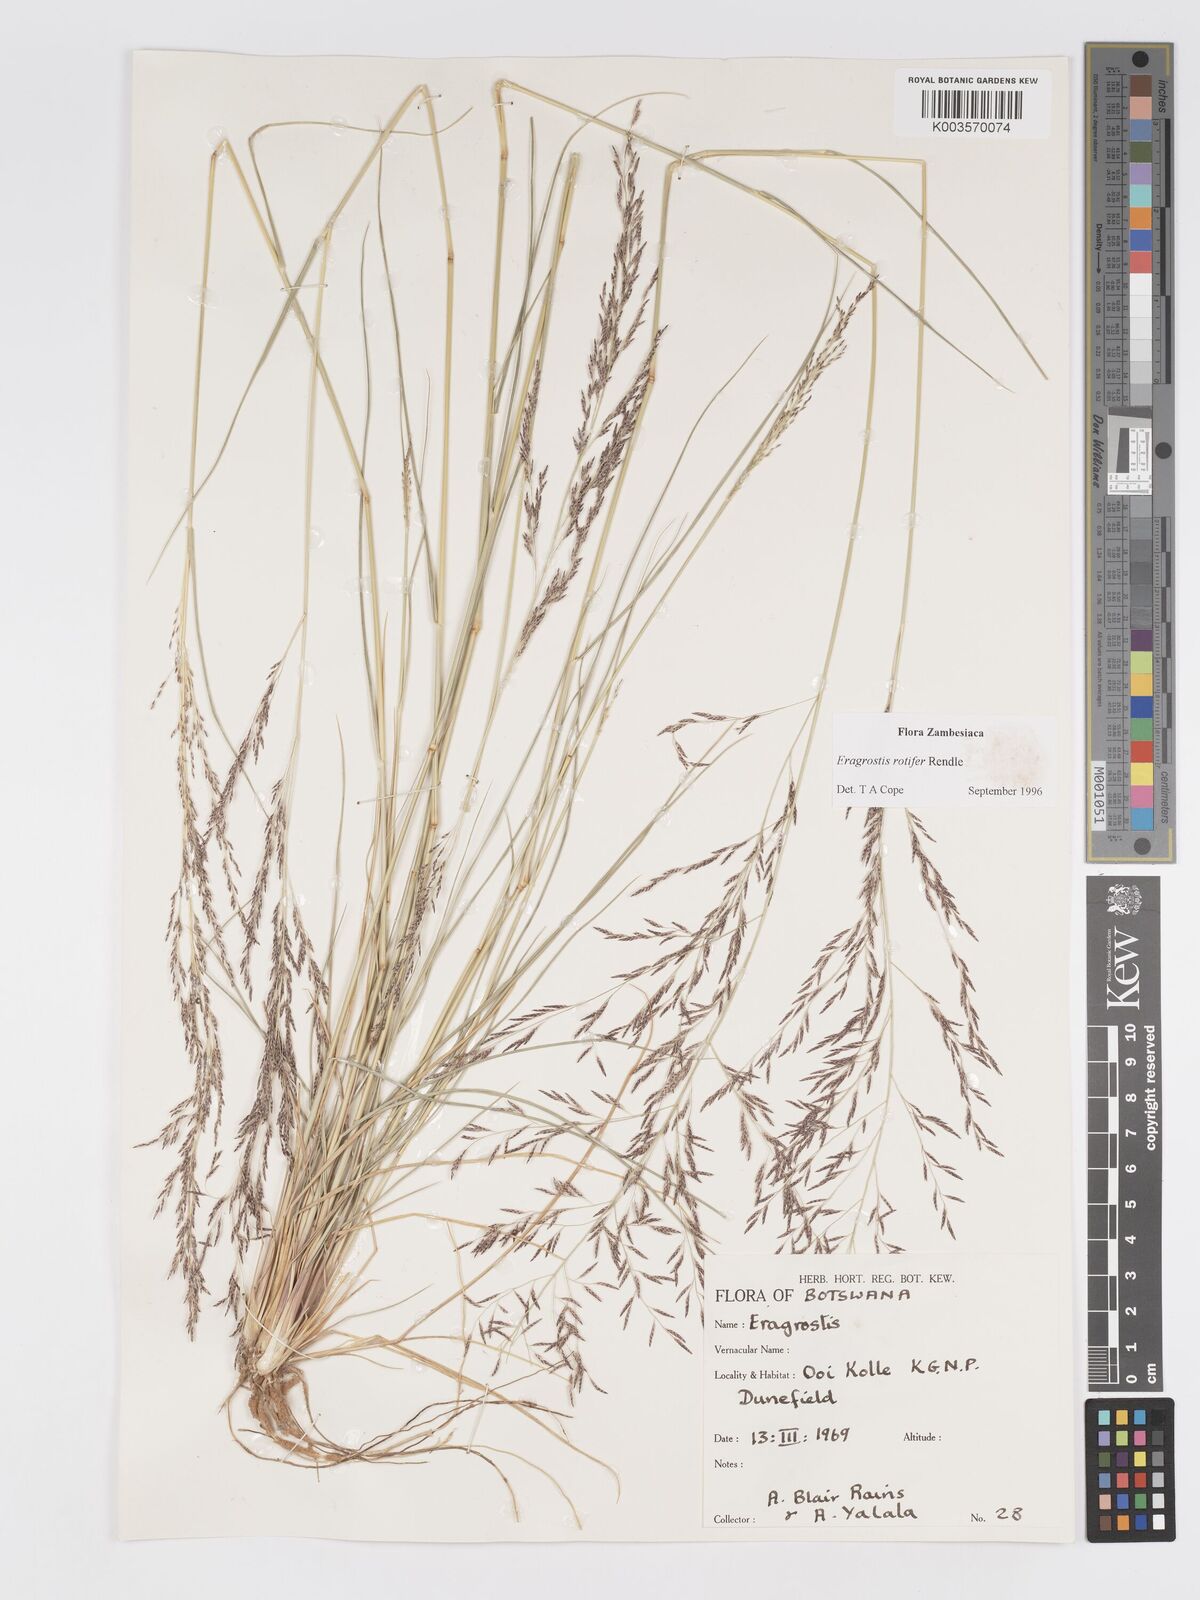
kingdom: Plantae
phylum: Tracheophyta
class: Liliopsida
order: Poales
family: Poaceae
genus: Eragrostis
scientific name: Eragrostis rotifer
